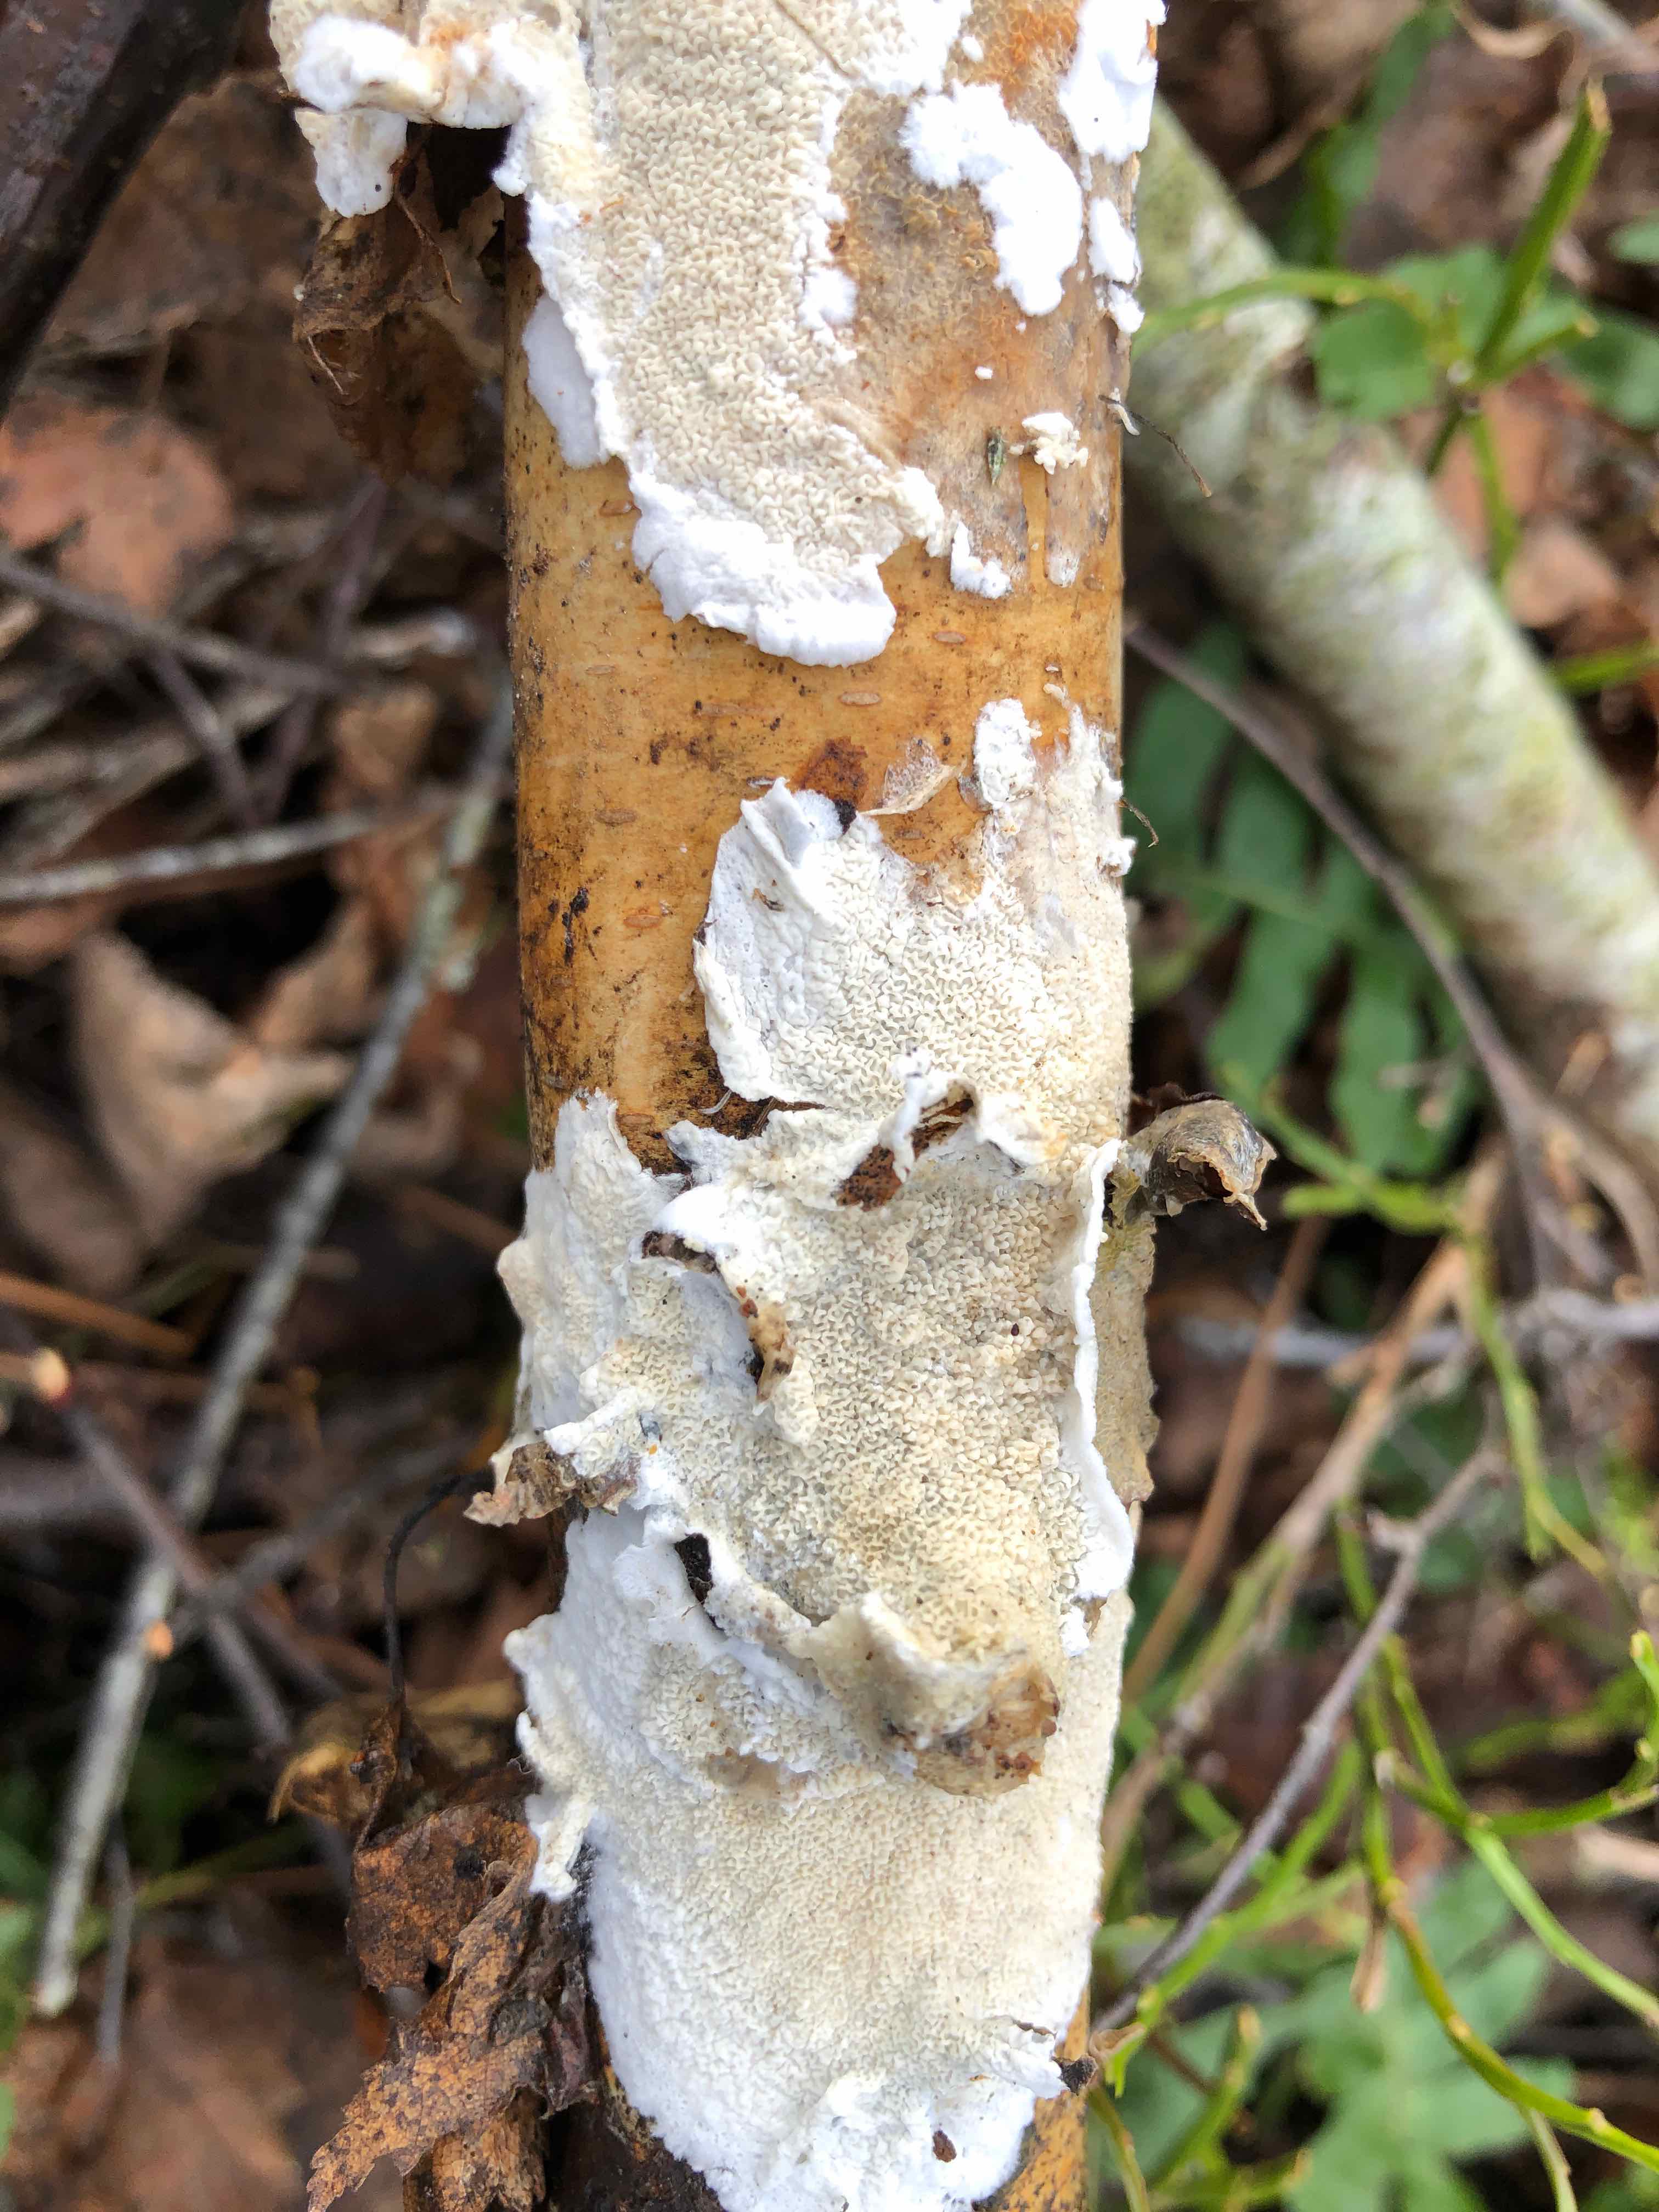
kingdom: Fungi
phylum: Basidiomycota
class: Agaricomycetes
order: Polyporales
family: Irpicaceae
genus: Byssomerulius
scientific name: Byssomerulius corium
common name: læder-åresvamp
